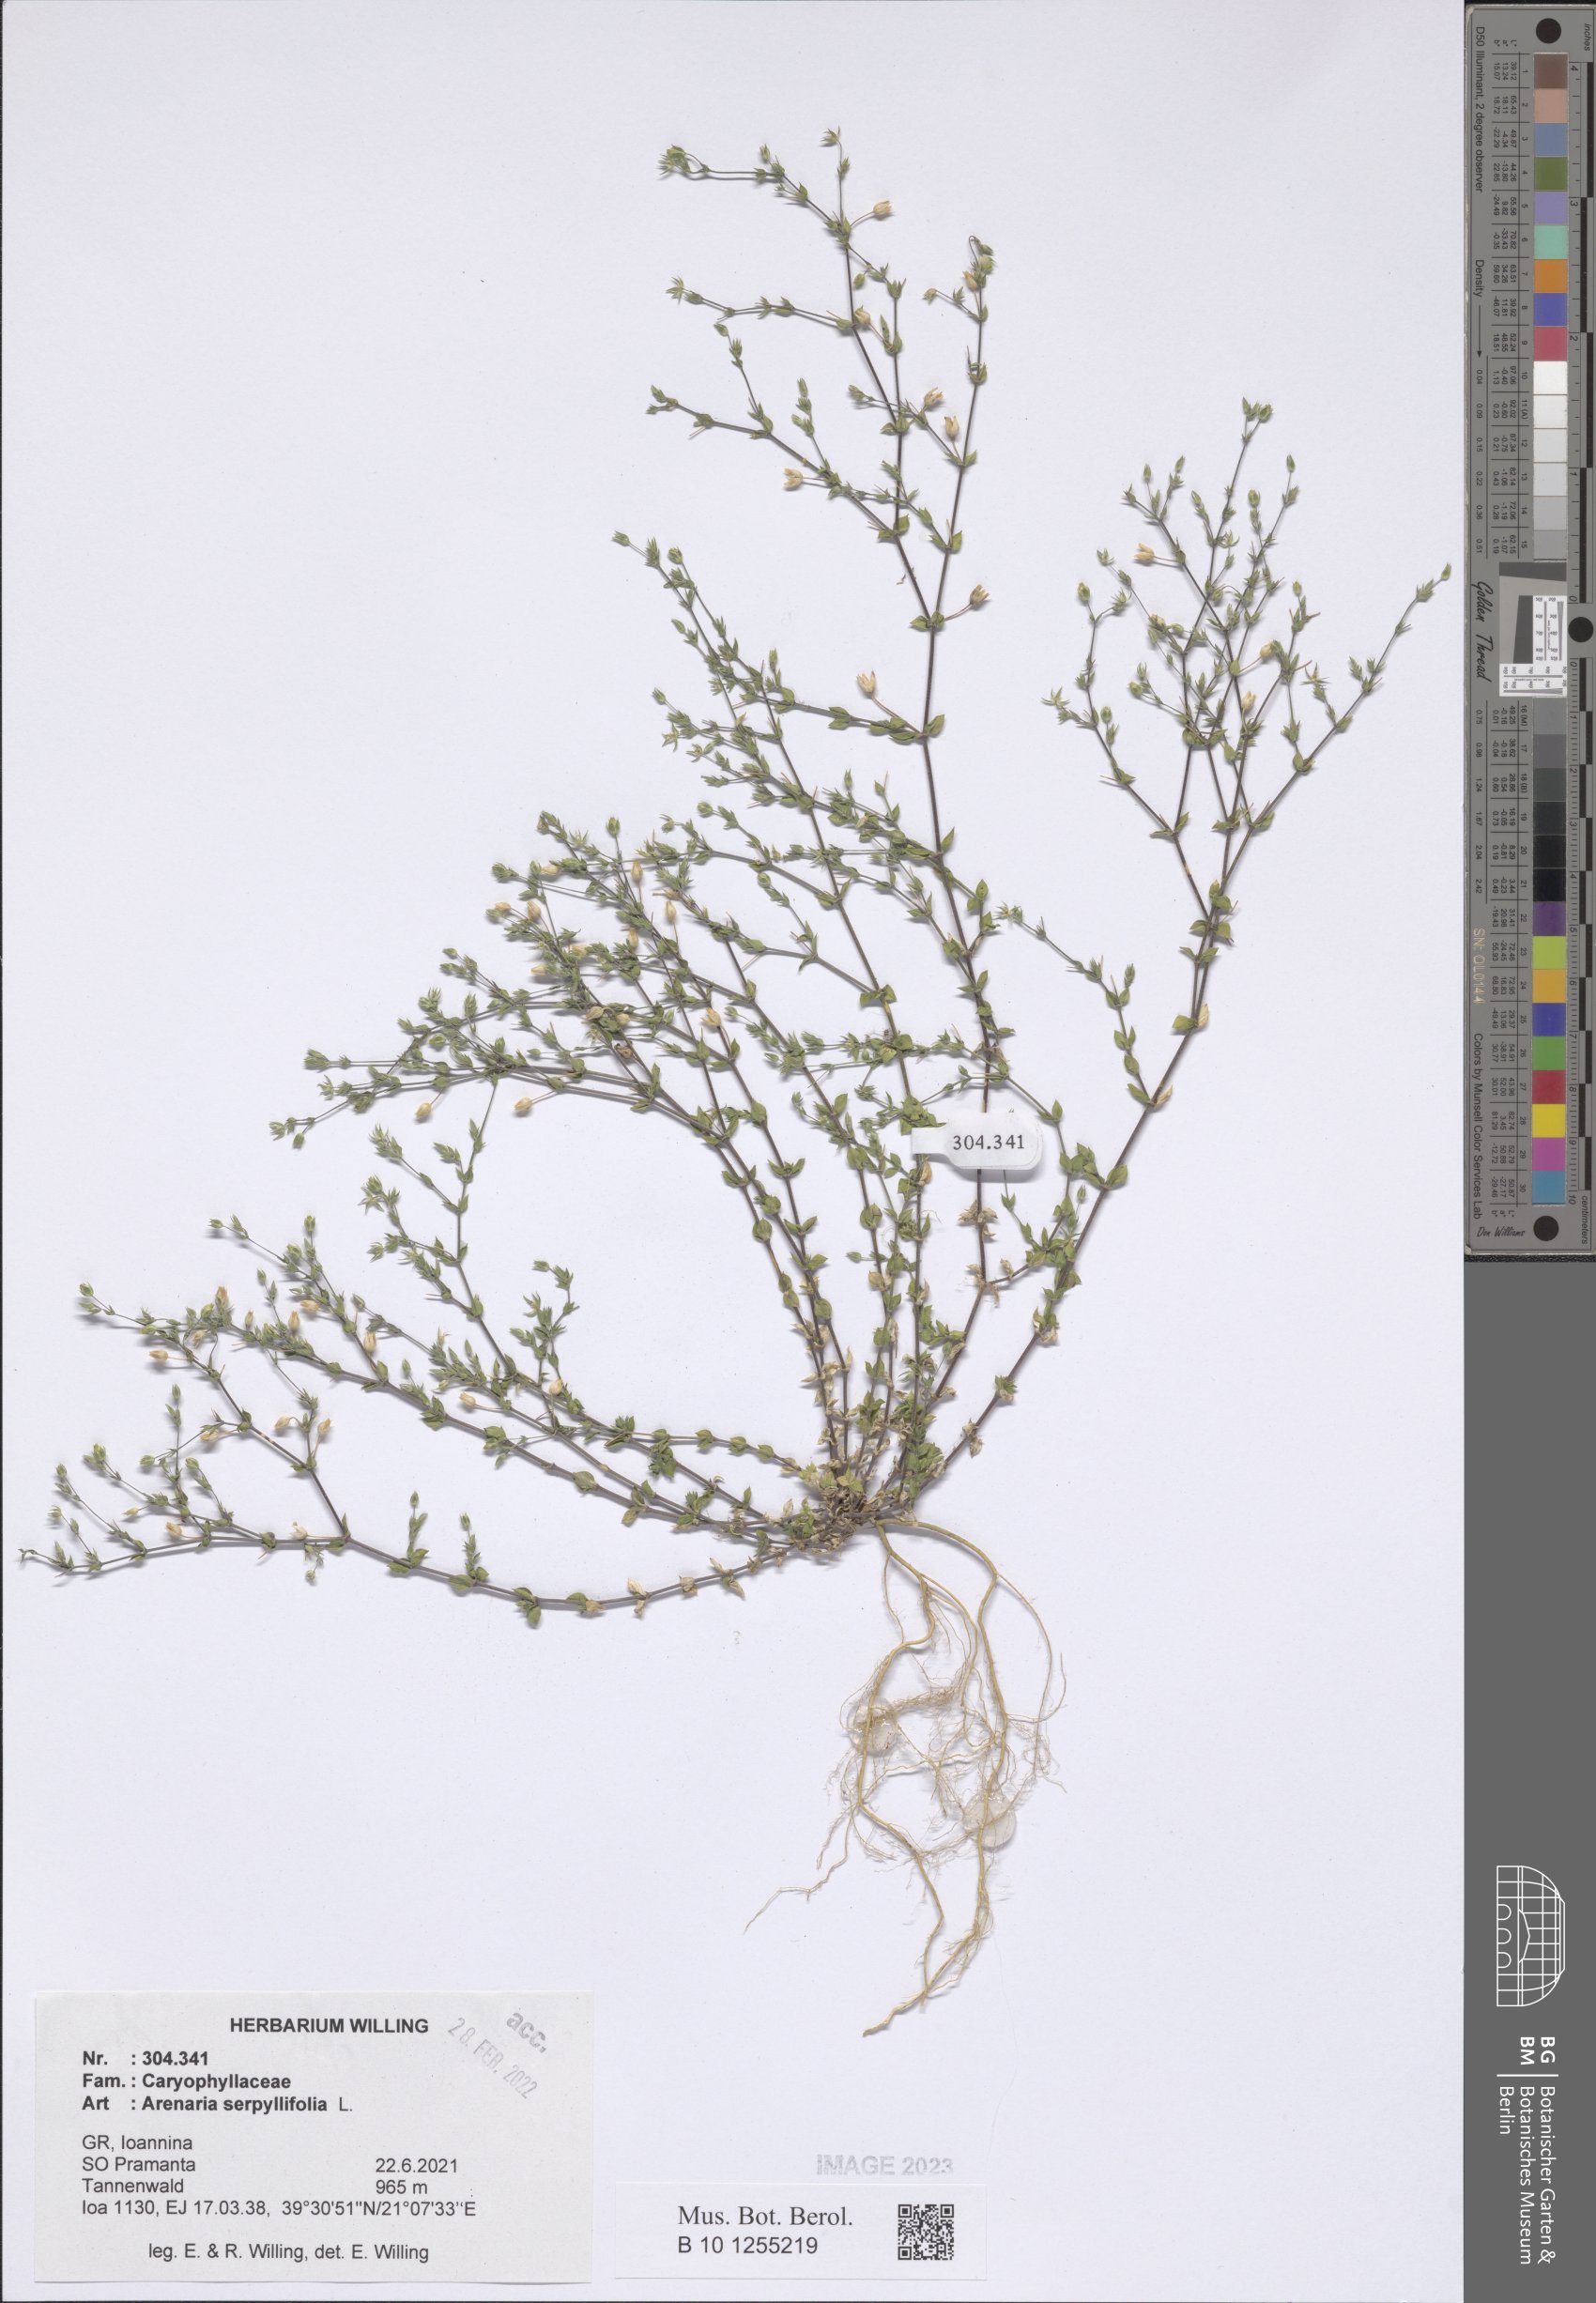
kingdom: Plantae
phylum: Tracheophyta
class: Magnoliopsida
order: Caryophyllales
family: Caryophyllaceae
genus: Arenaria
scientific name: Arenaria serpyllifolia
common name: Thyme-leaved sandwort
